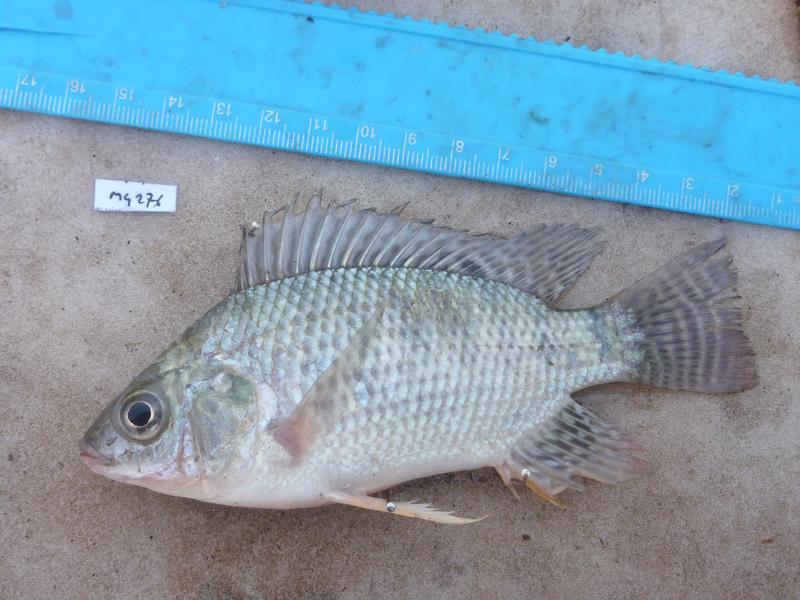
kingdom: Animalia
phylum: Chordata
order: Perciformes
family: Cichlidae
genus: Oreochromis
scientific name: Oreochromis niloticus
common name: Nile tilapia
